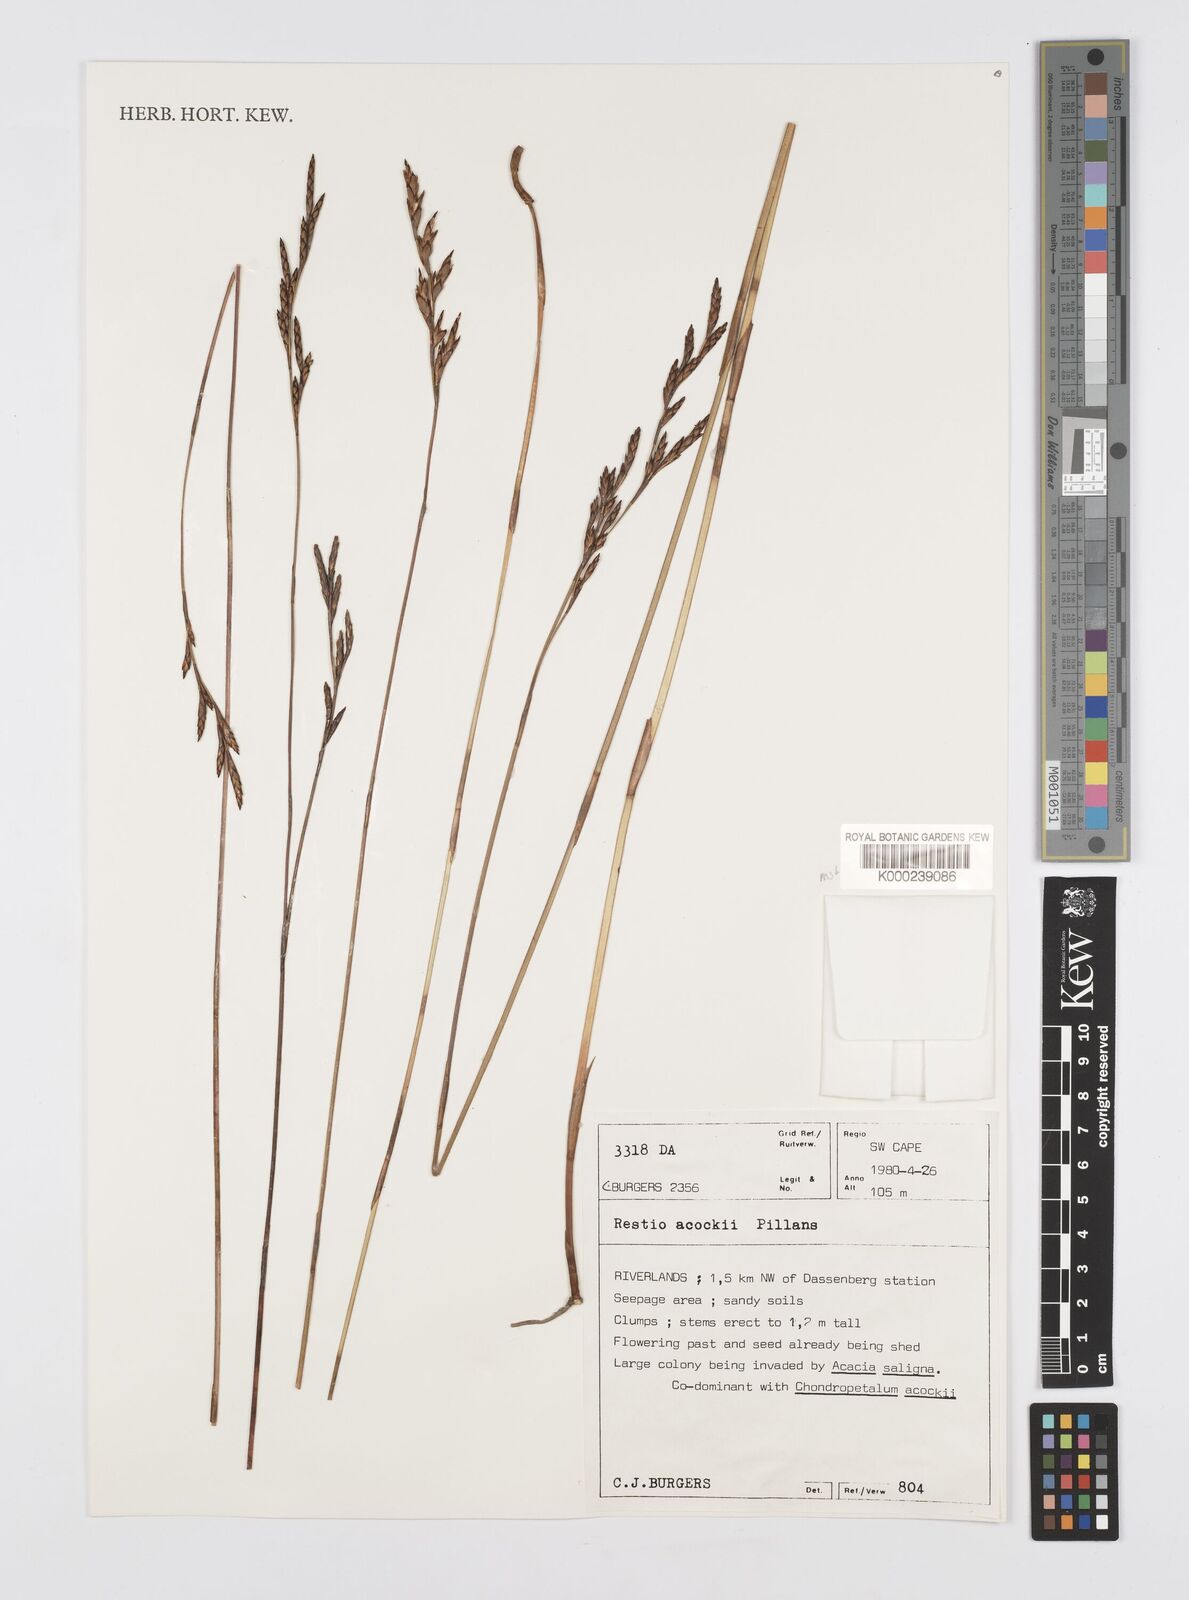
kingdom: Plantae
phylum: Tracheophyta
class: Liliopsida
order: Poales
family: Restionaceae
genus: Restio
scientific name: Restio acockii
